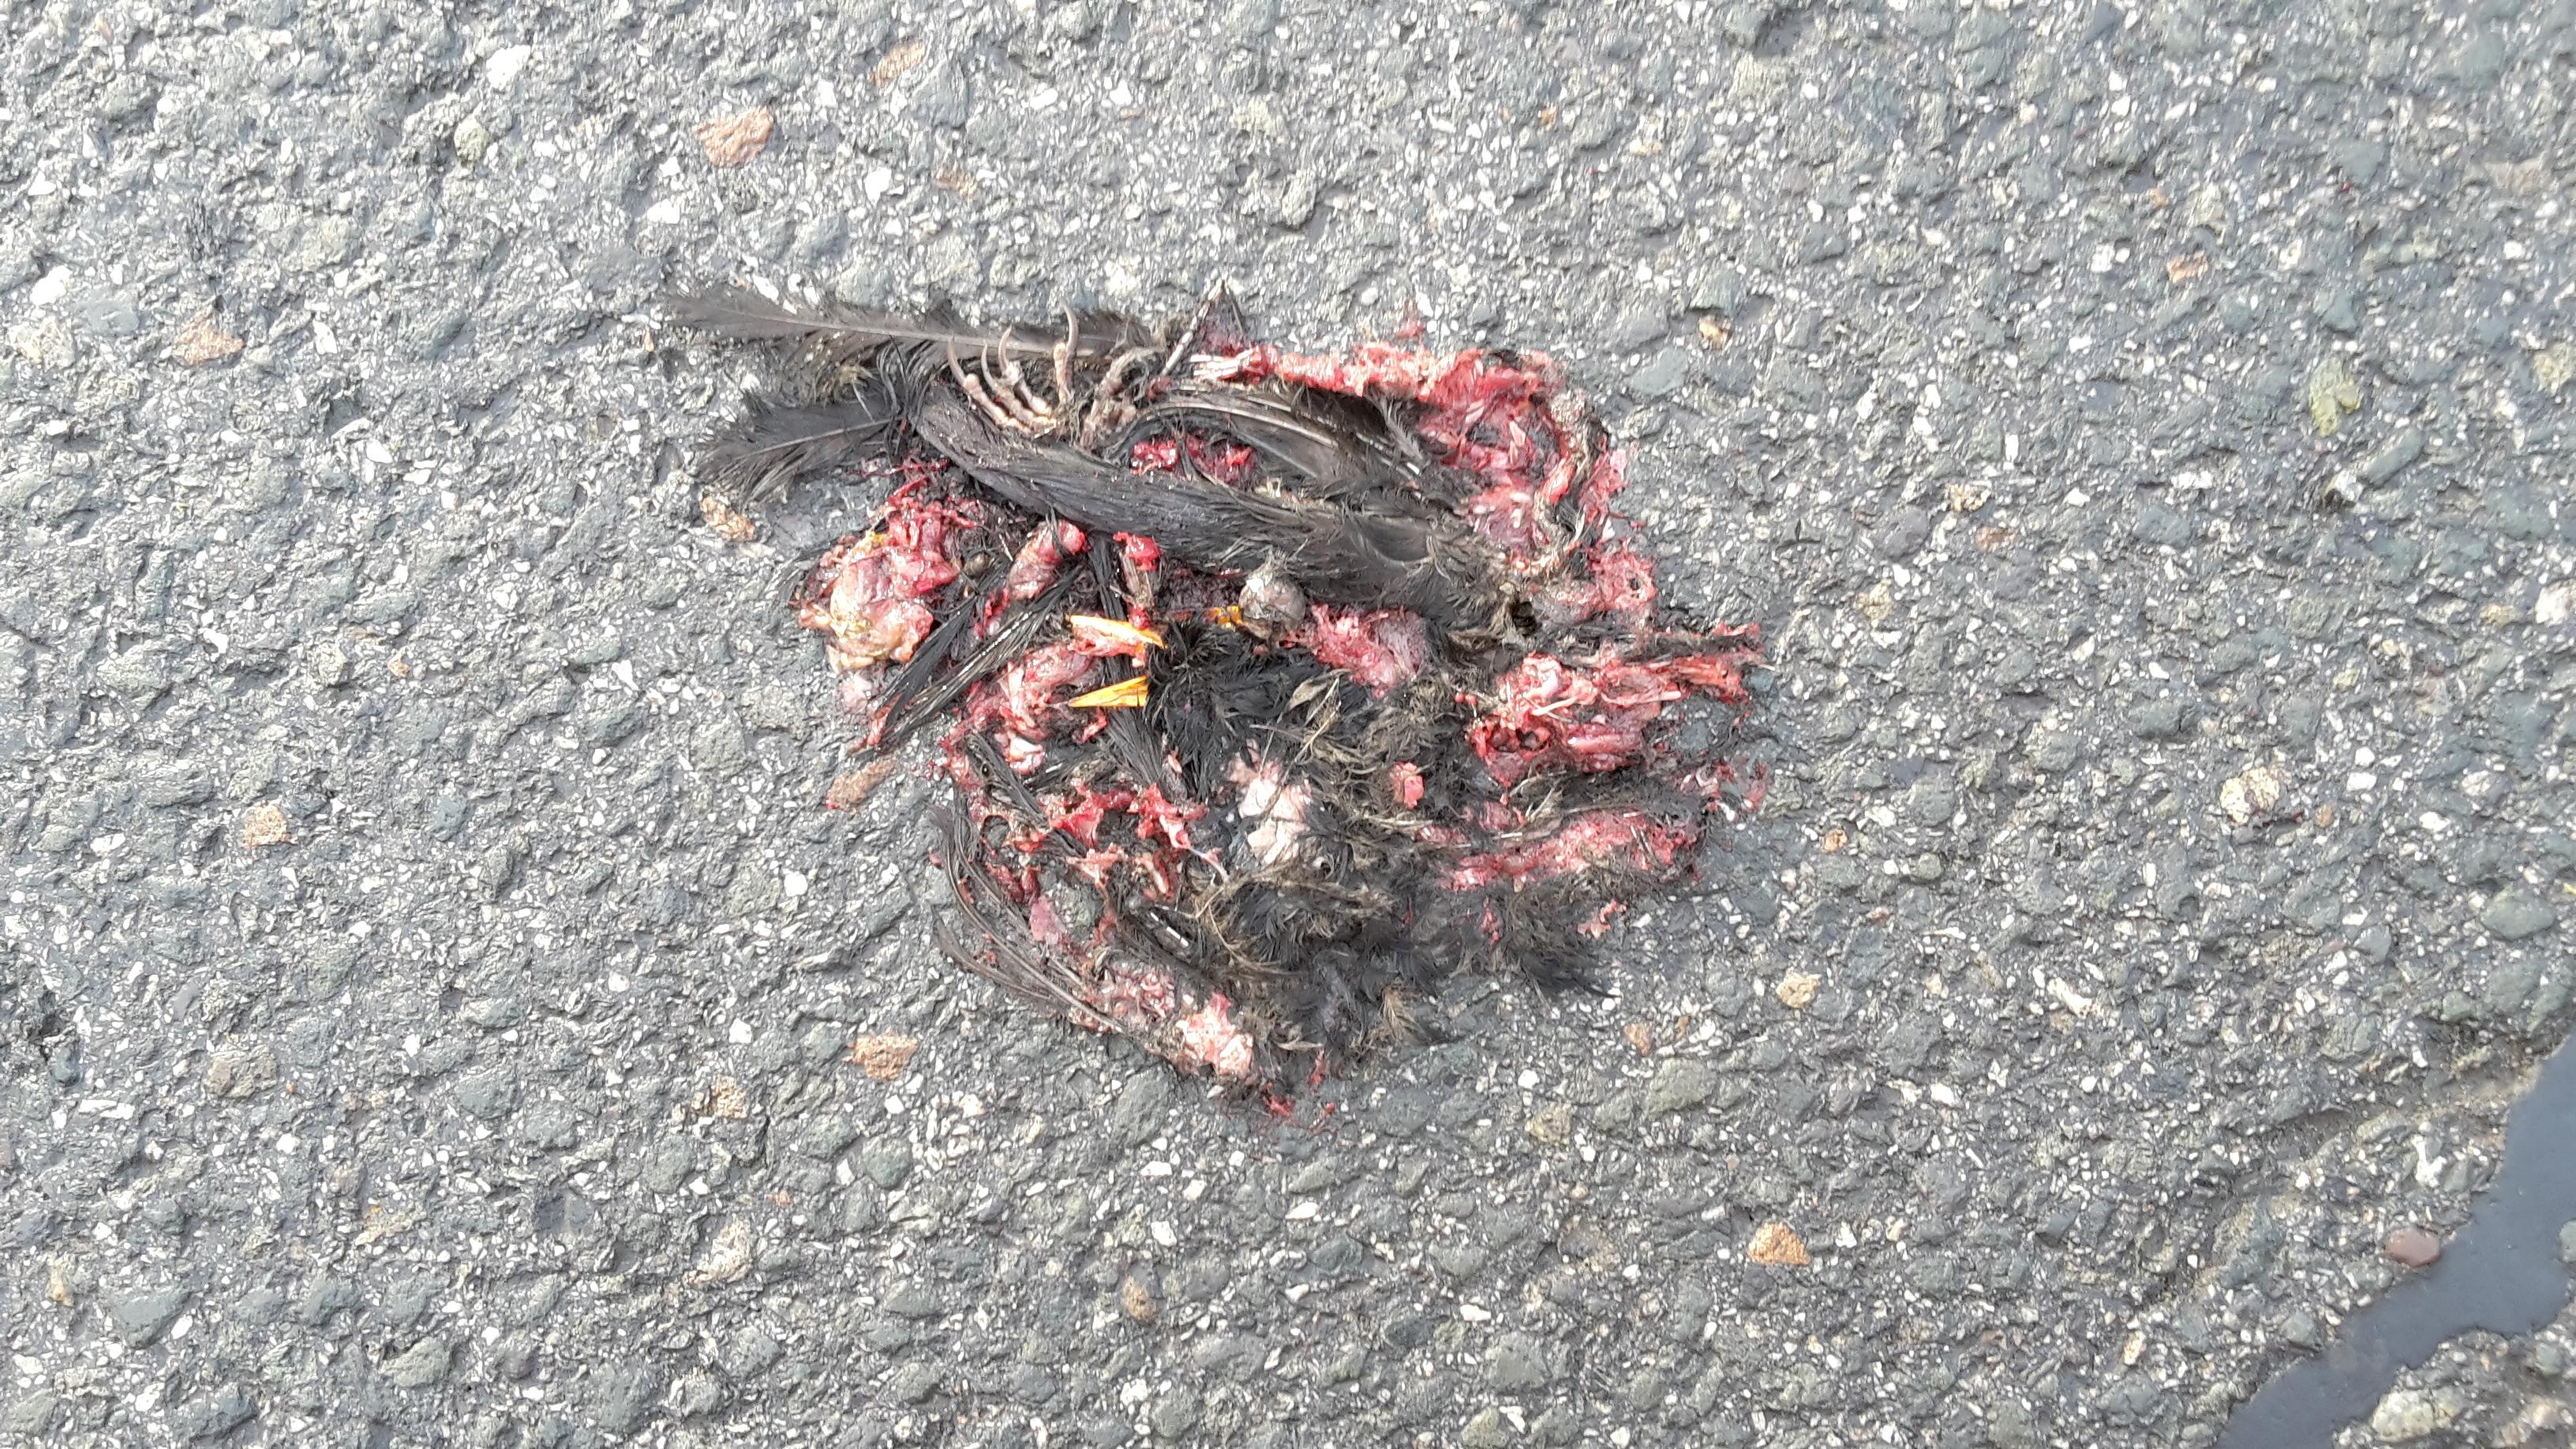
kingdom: Animalia
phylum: Chordata
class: Aves
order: Passeriformes
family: Turdidae
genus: Turdus
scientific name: Turdus merula
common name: Common blackbird
